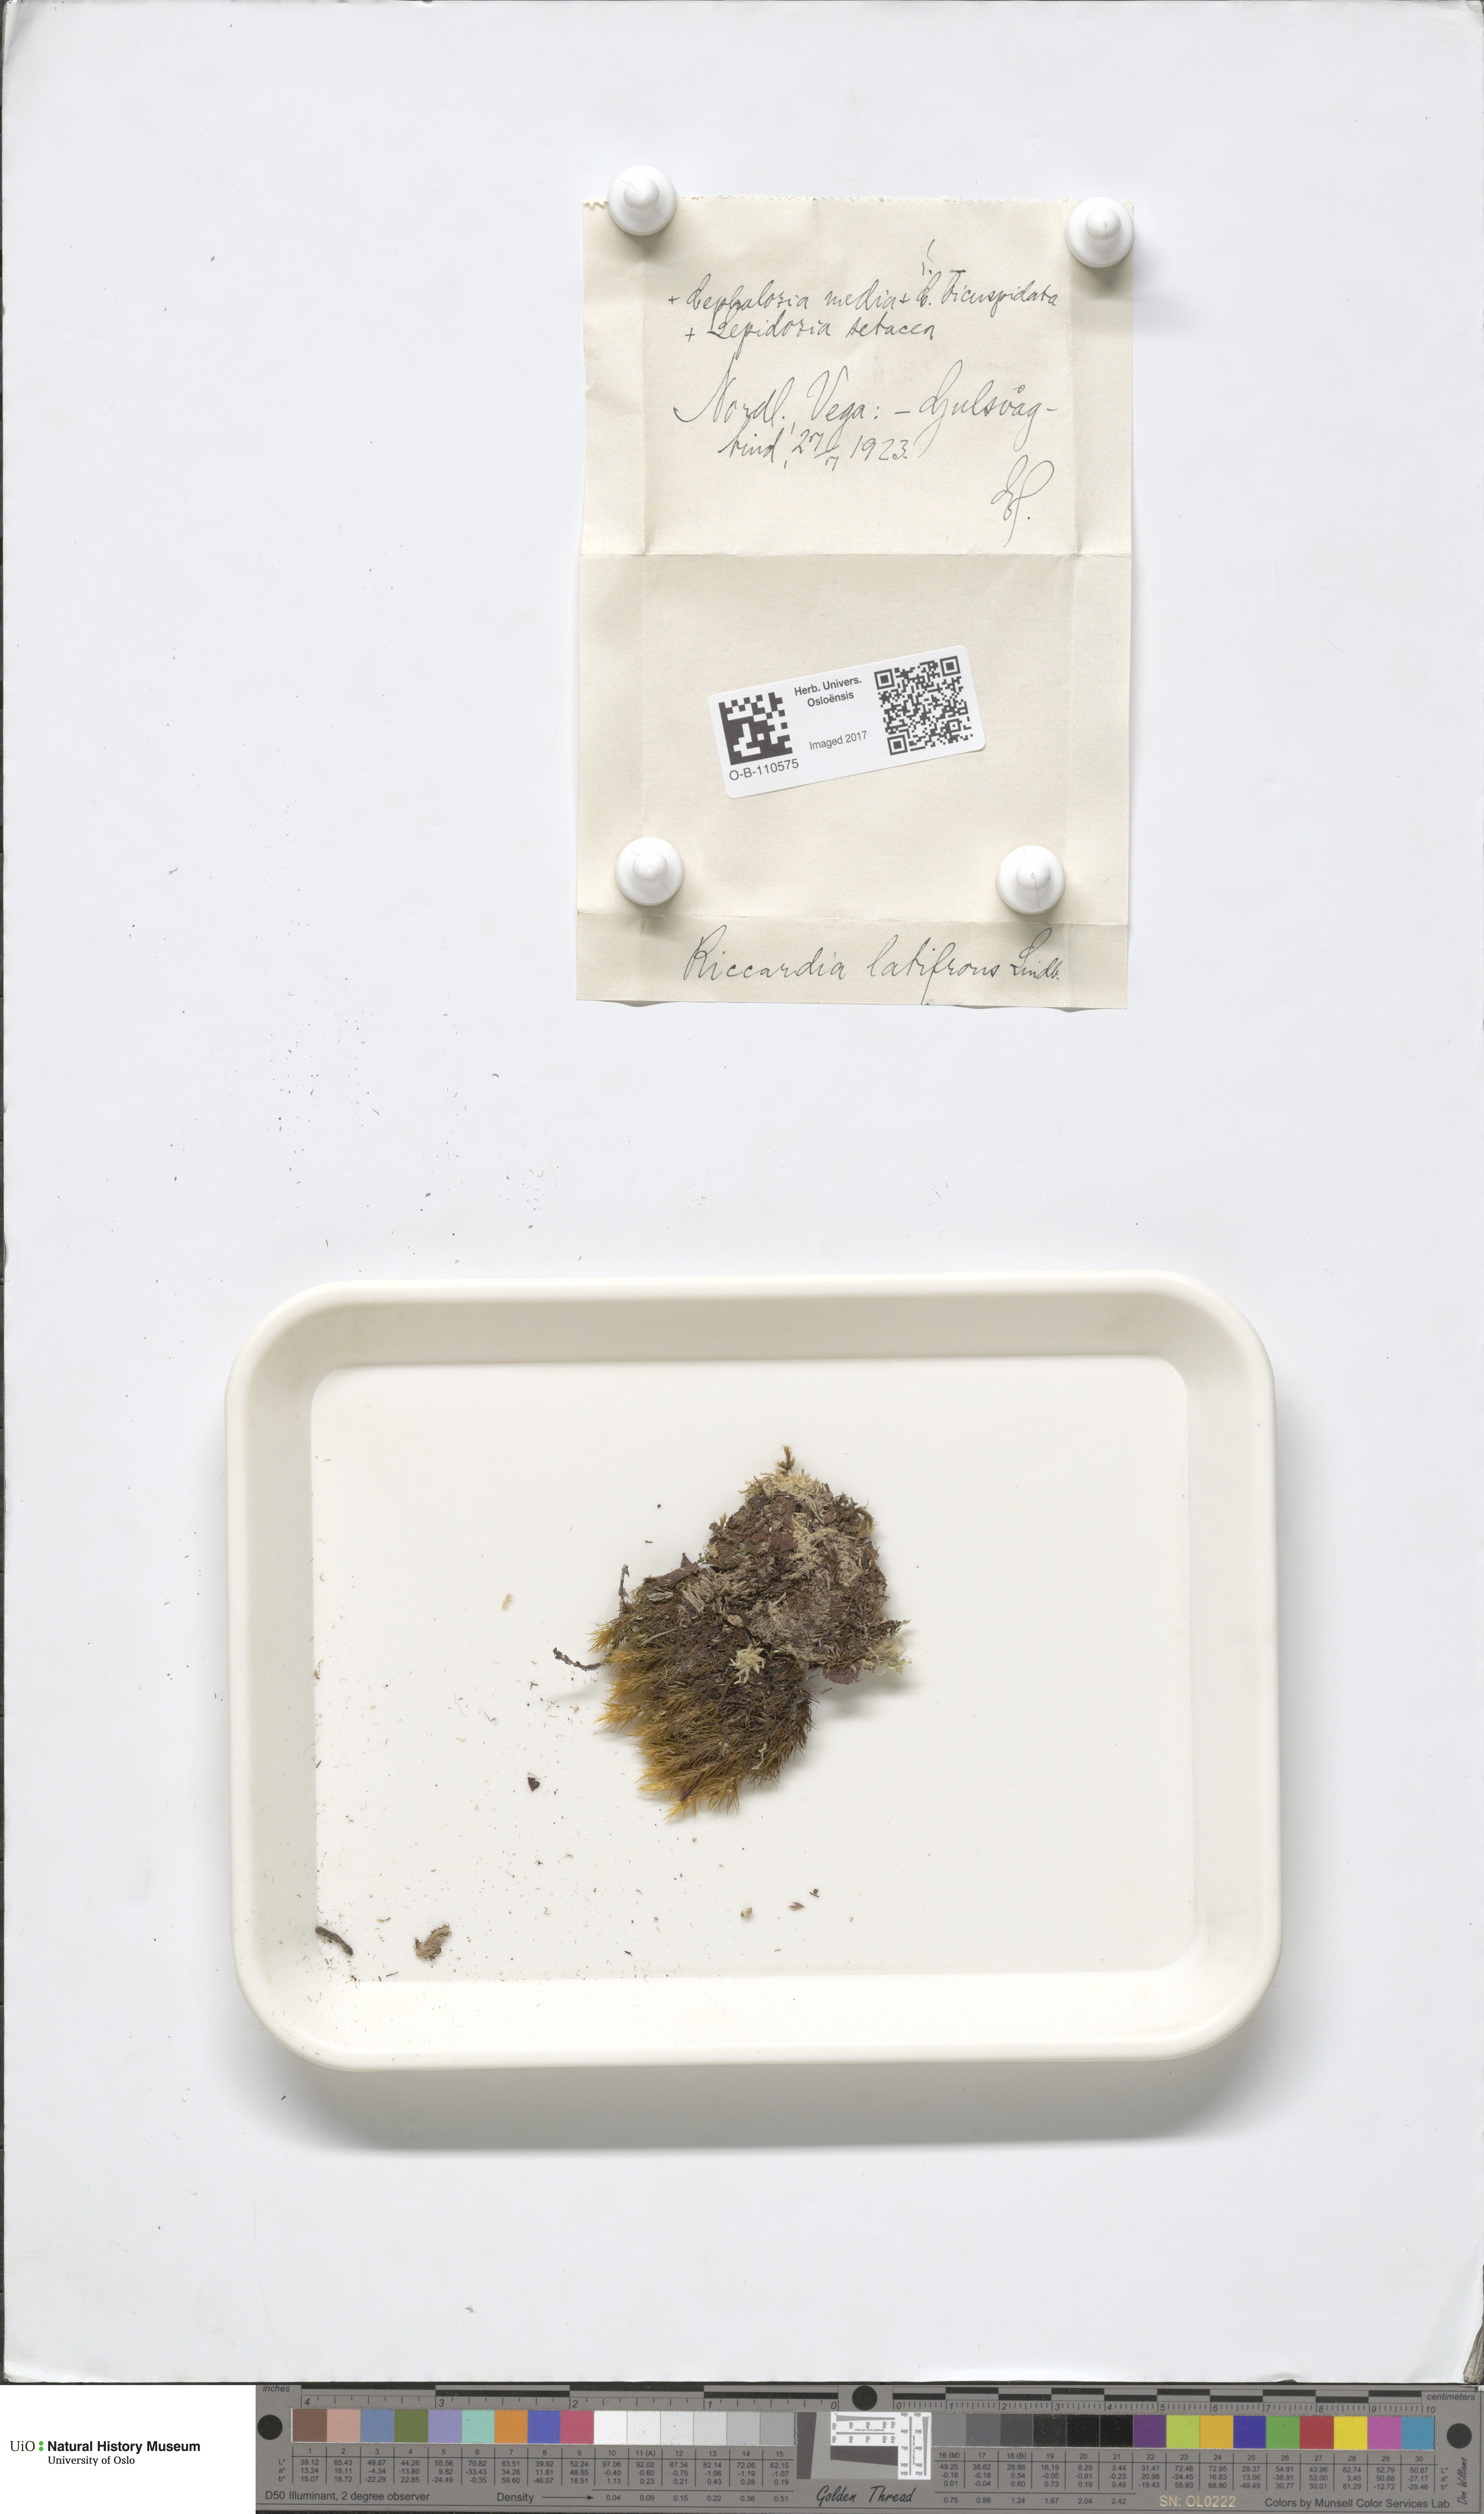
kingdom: Plantae
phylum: Marchantiophyta
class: Jungermanniopsida
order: Metzgeriales
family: Aneuraceae
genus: Riccardia
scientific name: Riccardia latifrons
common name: Bog germanderwort
